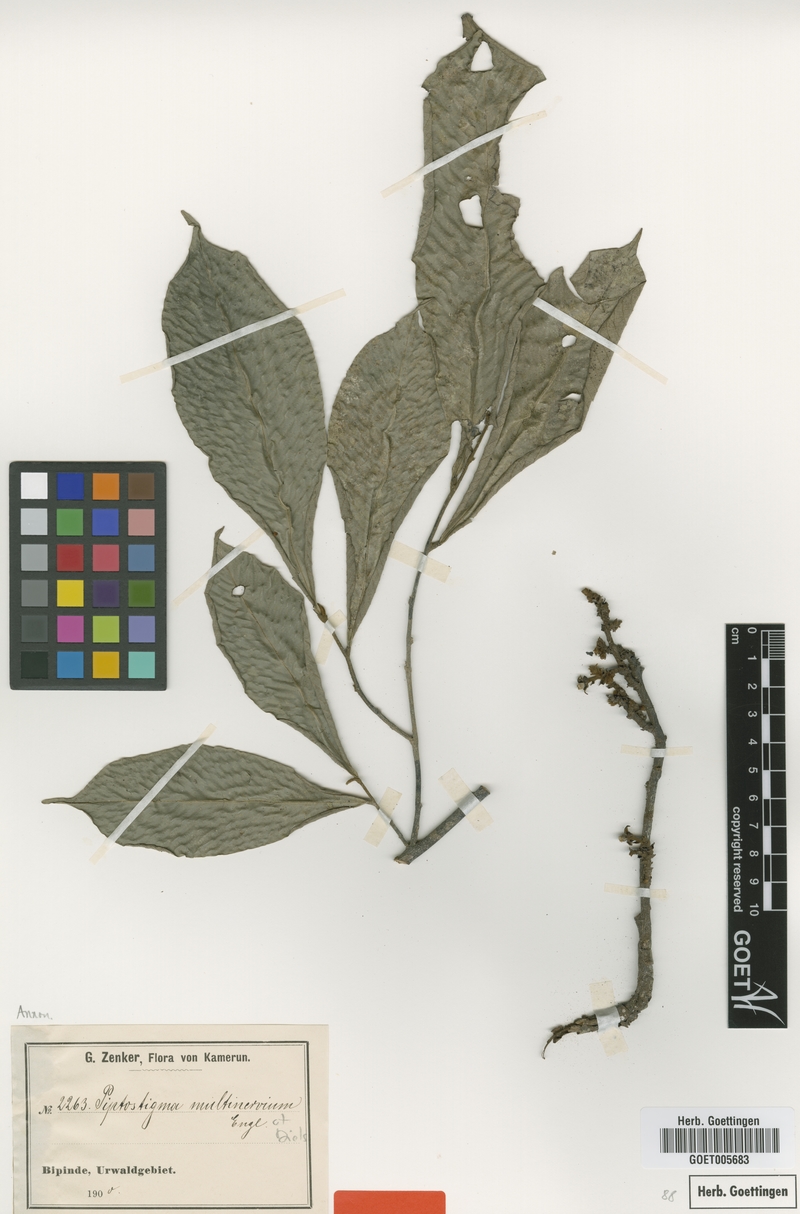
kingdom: Plantae
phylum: Tracheophyta
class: Magnoliopsida
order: Magnoliales
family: Annonaceae
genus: Piptostigma
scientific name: Piptostigma multinervium
